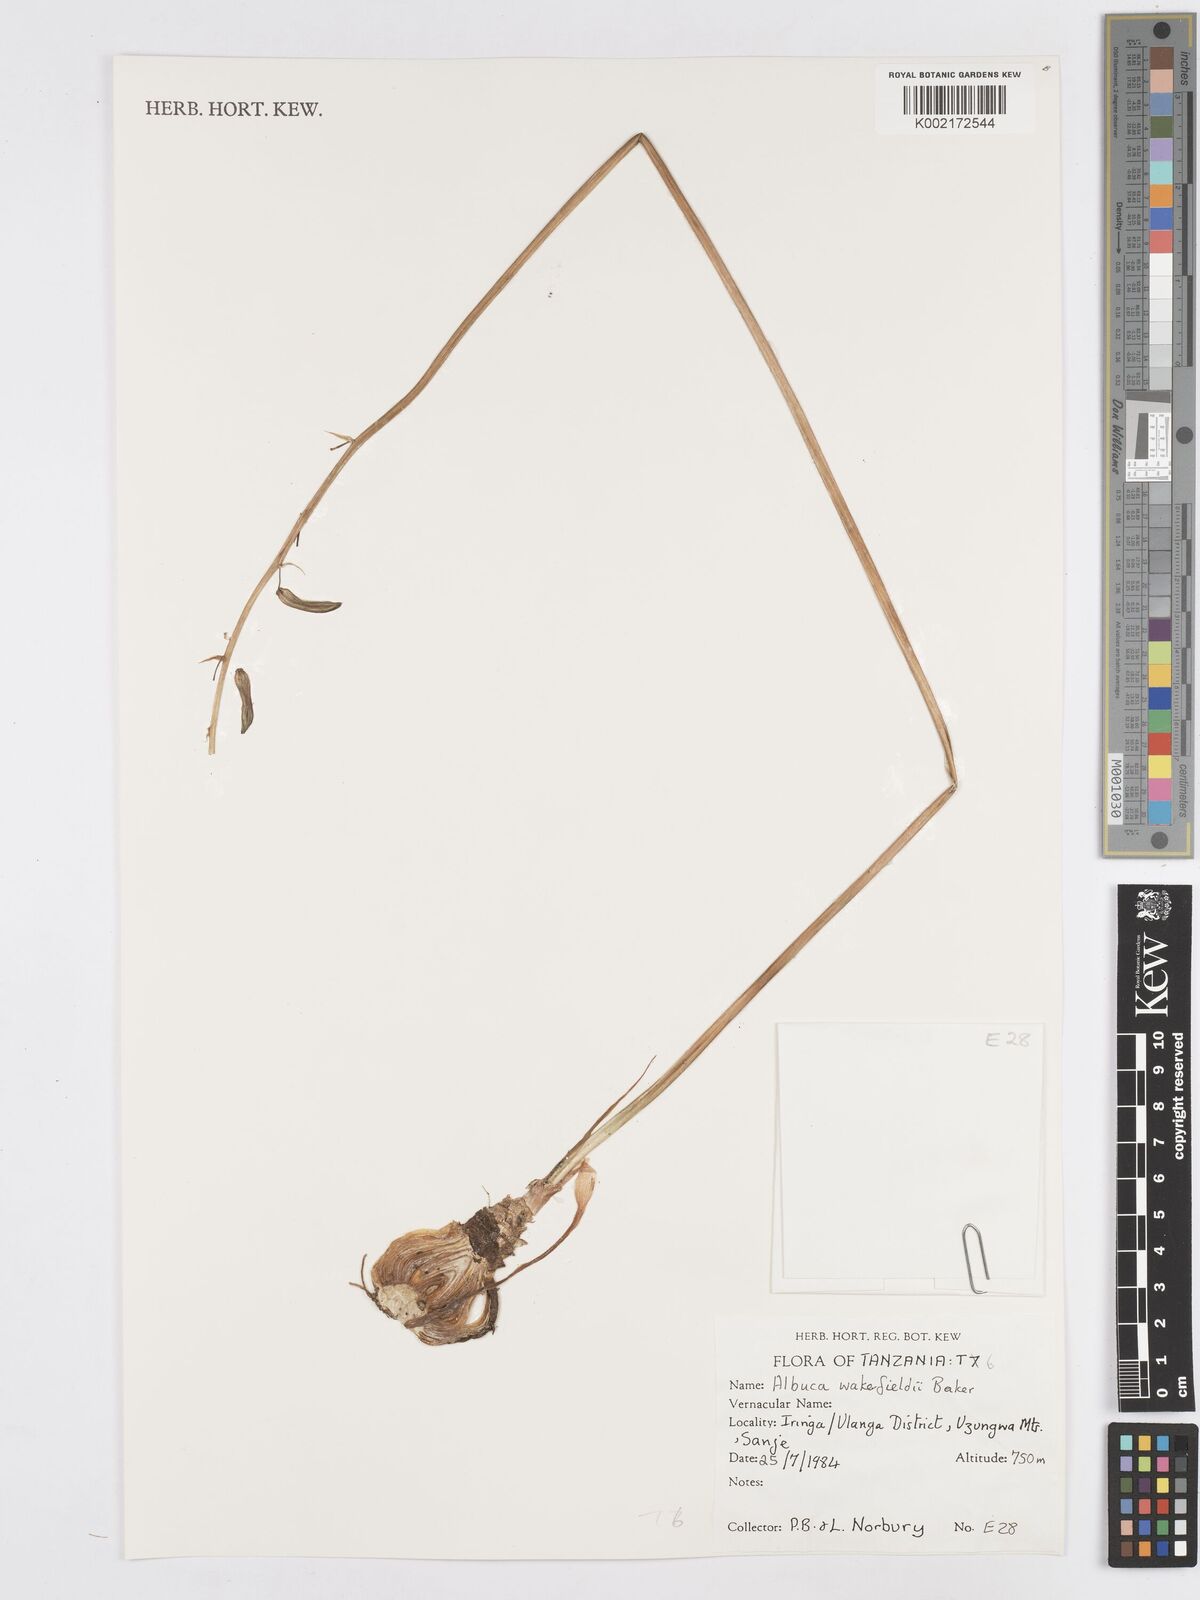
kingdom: Plantae
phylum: Tracheophyta
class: Liliopsida
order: Asparagales
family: Asparagaceae
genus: Albuca
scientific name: Albuca abyssinica
